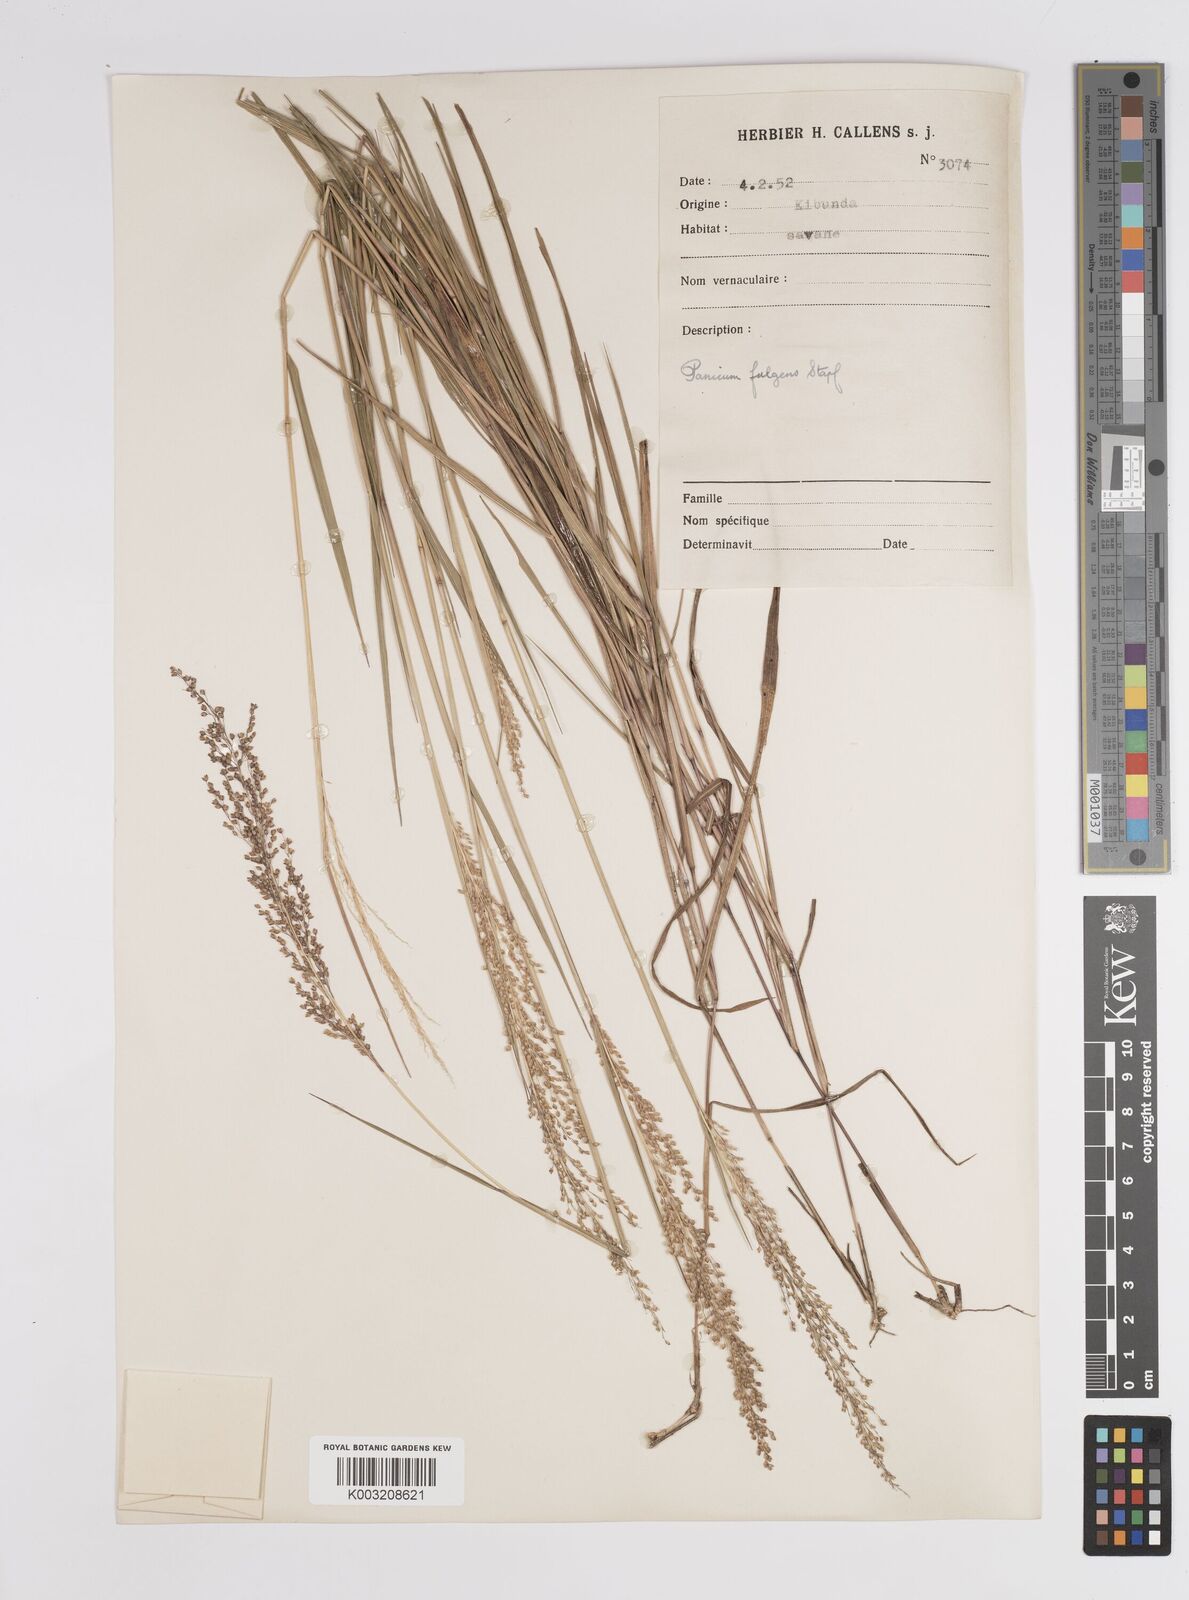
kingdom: Plantae
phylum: Tracheophyta
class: Liliopsida
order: Poales
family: Poaceae
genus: Trichanthecium
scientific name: Trichanthecium nervatum
